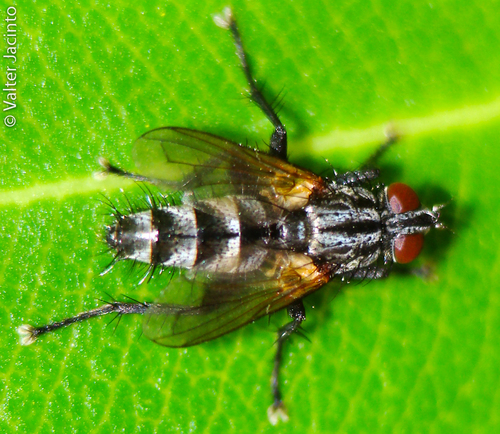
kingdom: Animalia
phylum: Arthropoda
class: Insecta
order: Diptera
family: Calliphoridae
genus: Stevenia
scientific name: Stevenia
